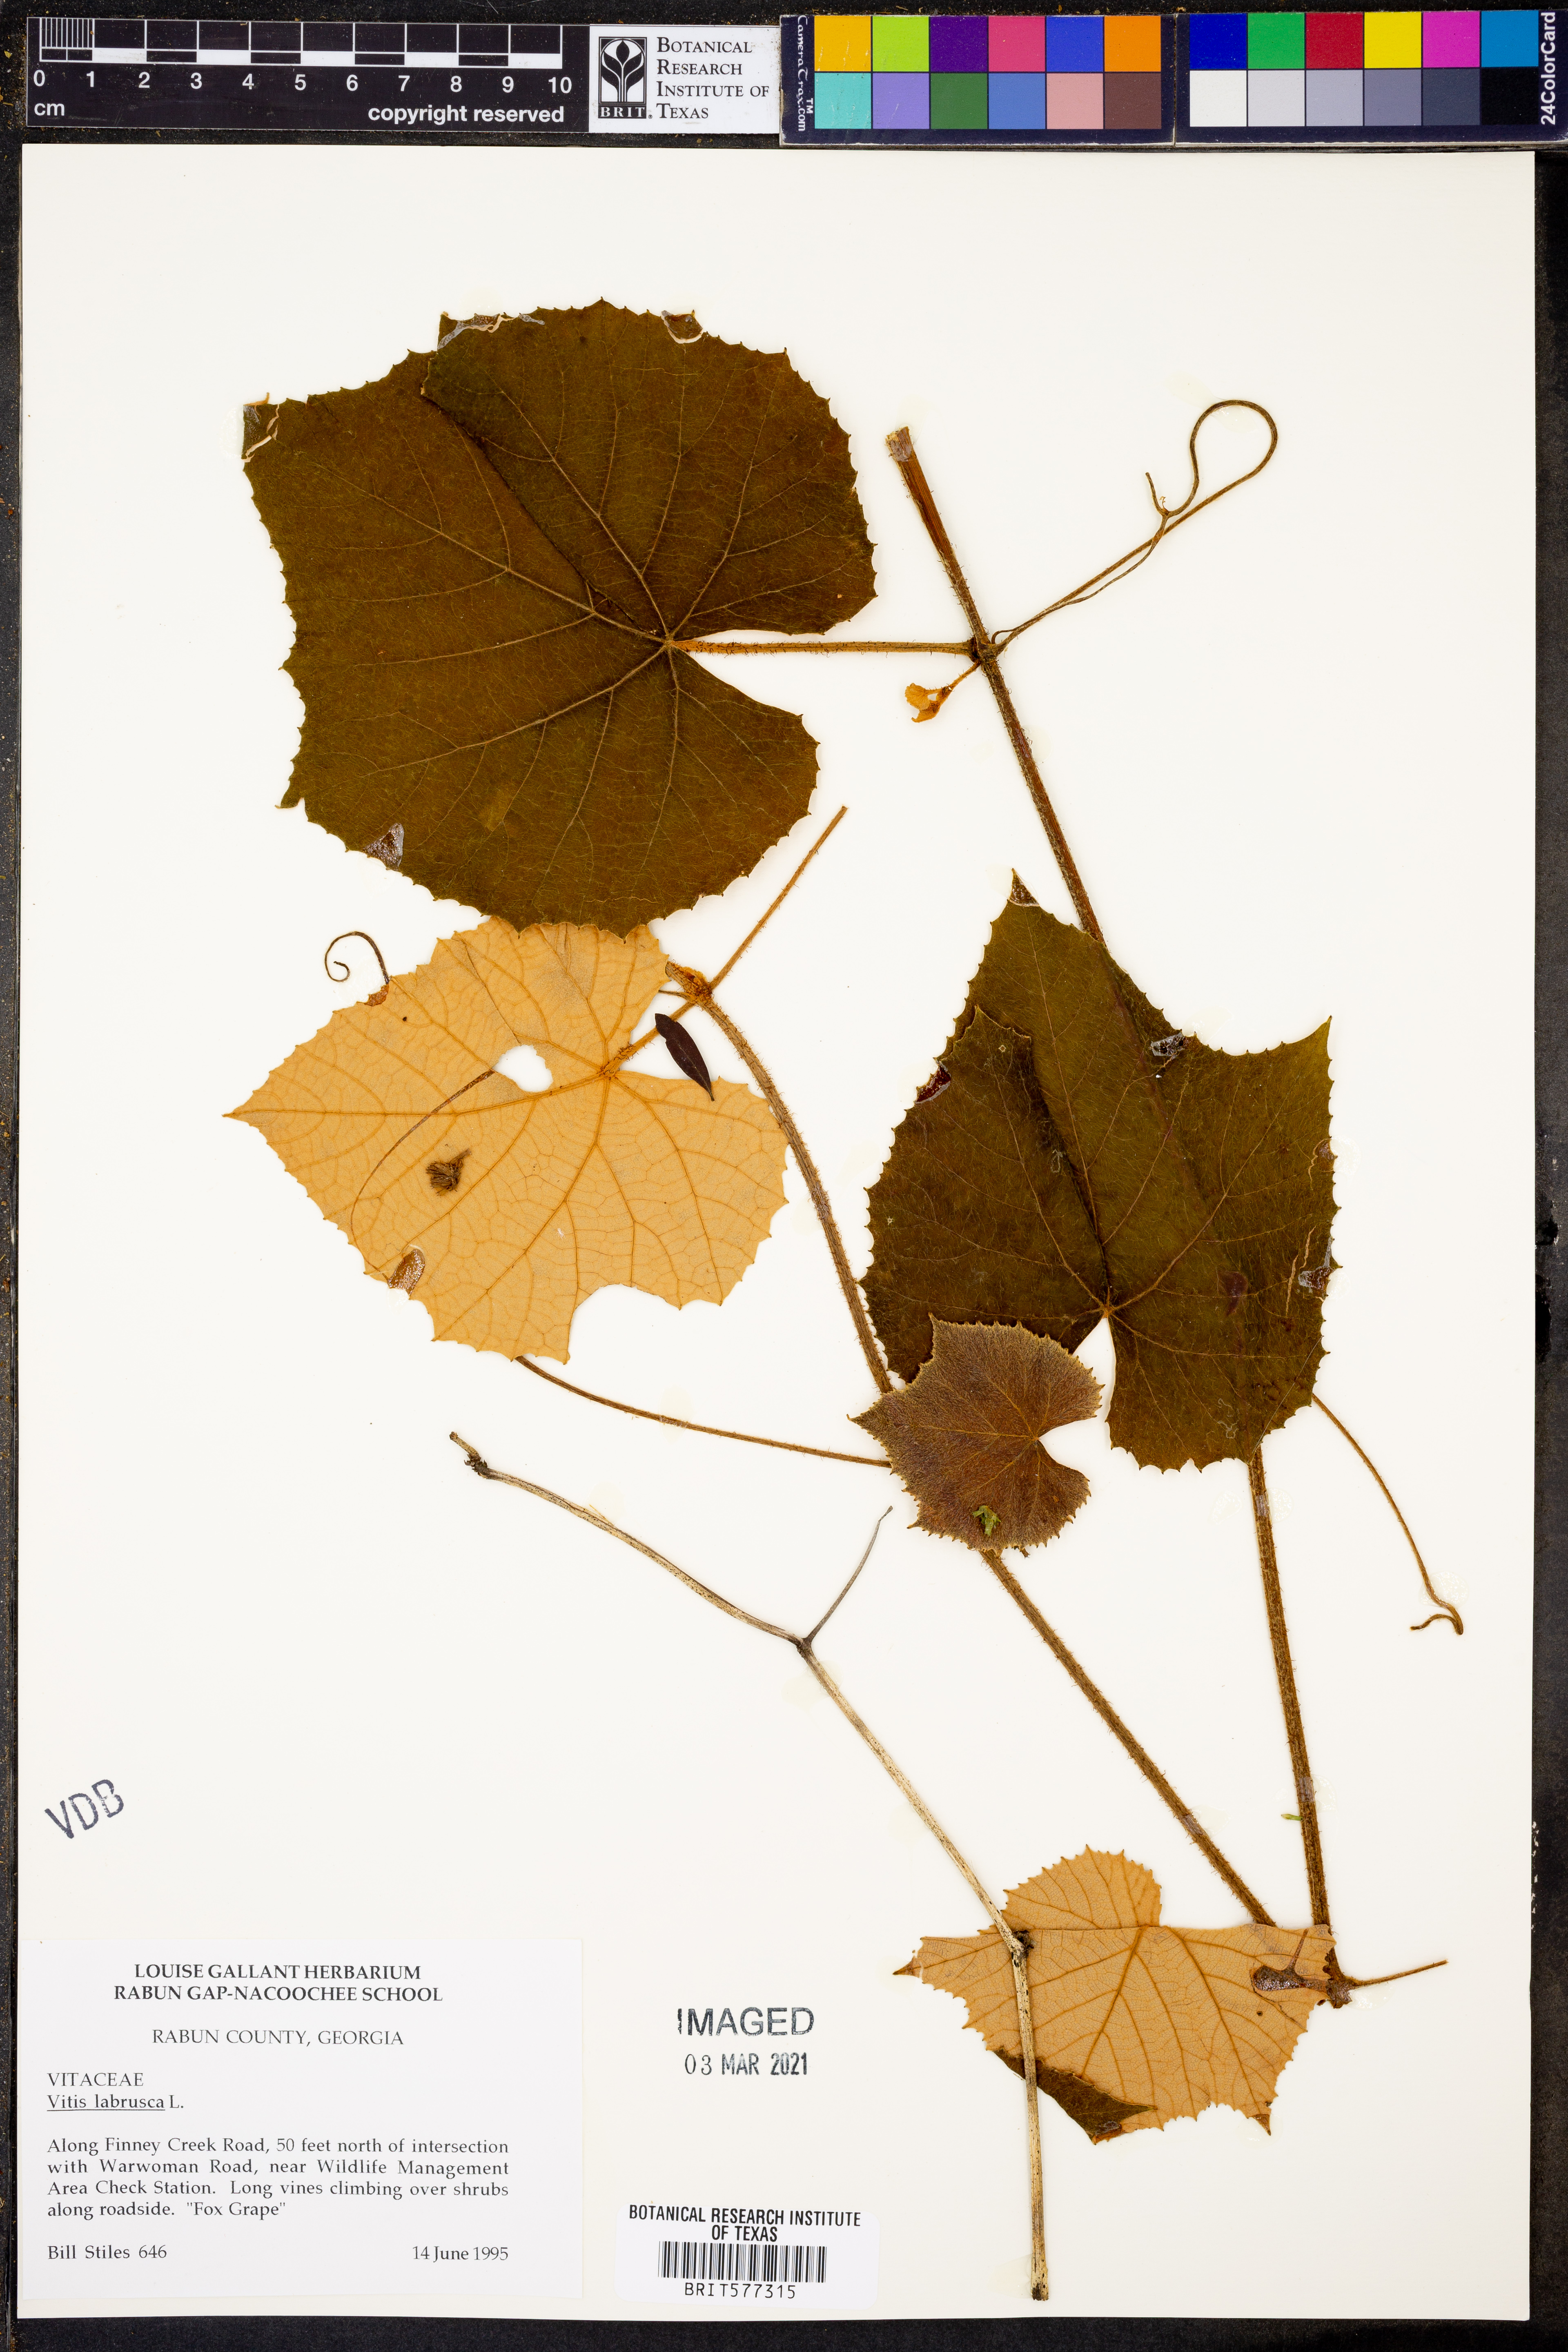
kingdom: Plantae
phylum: Tracheophyta
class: Magnoliopsida
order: Vitales
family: Vitaceae
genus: Vitis
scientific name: Vitis labrusca
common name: Concord grape
